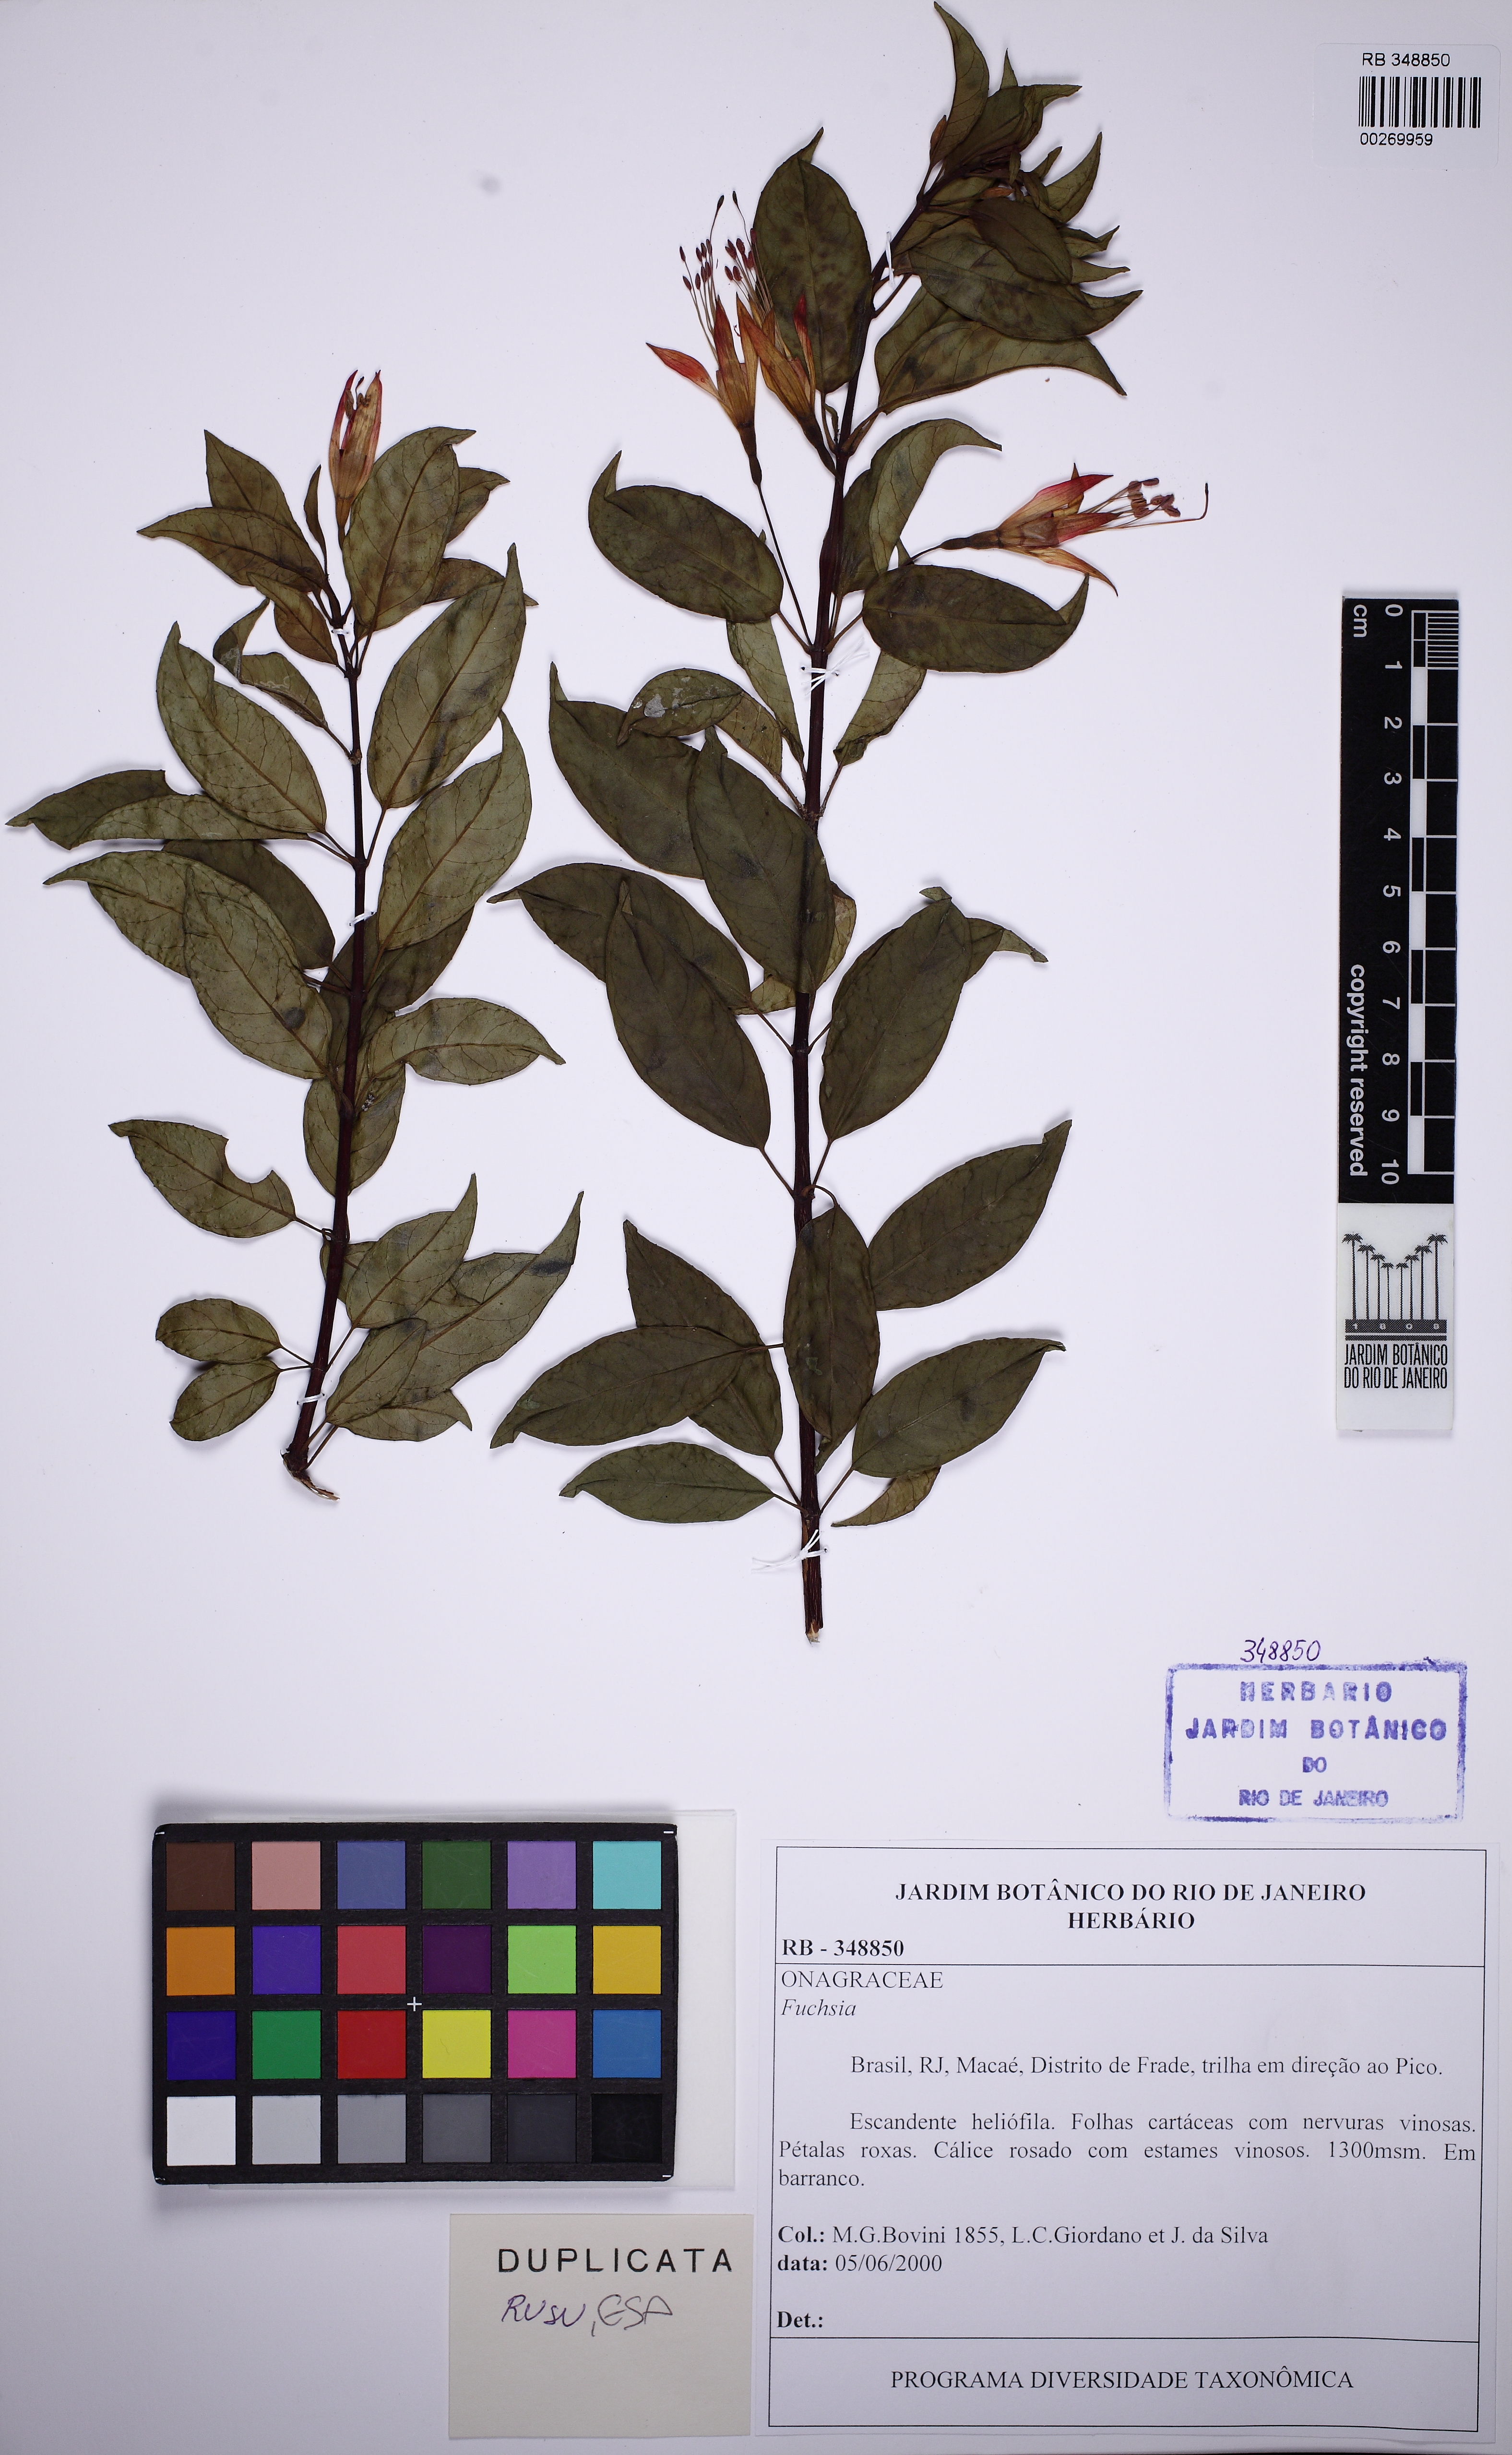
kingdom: Plantae
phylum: Tracheophyta
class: Magnoliopsida
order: Myrtales
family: Onagraceae
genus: Fuchsia
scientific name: Fuchsia
